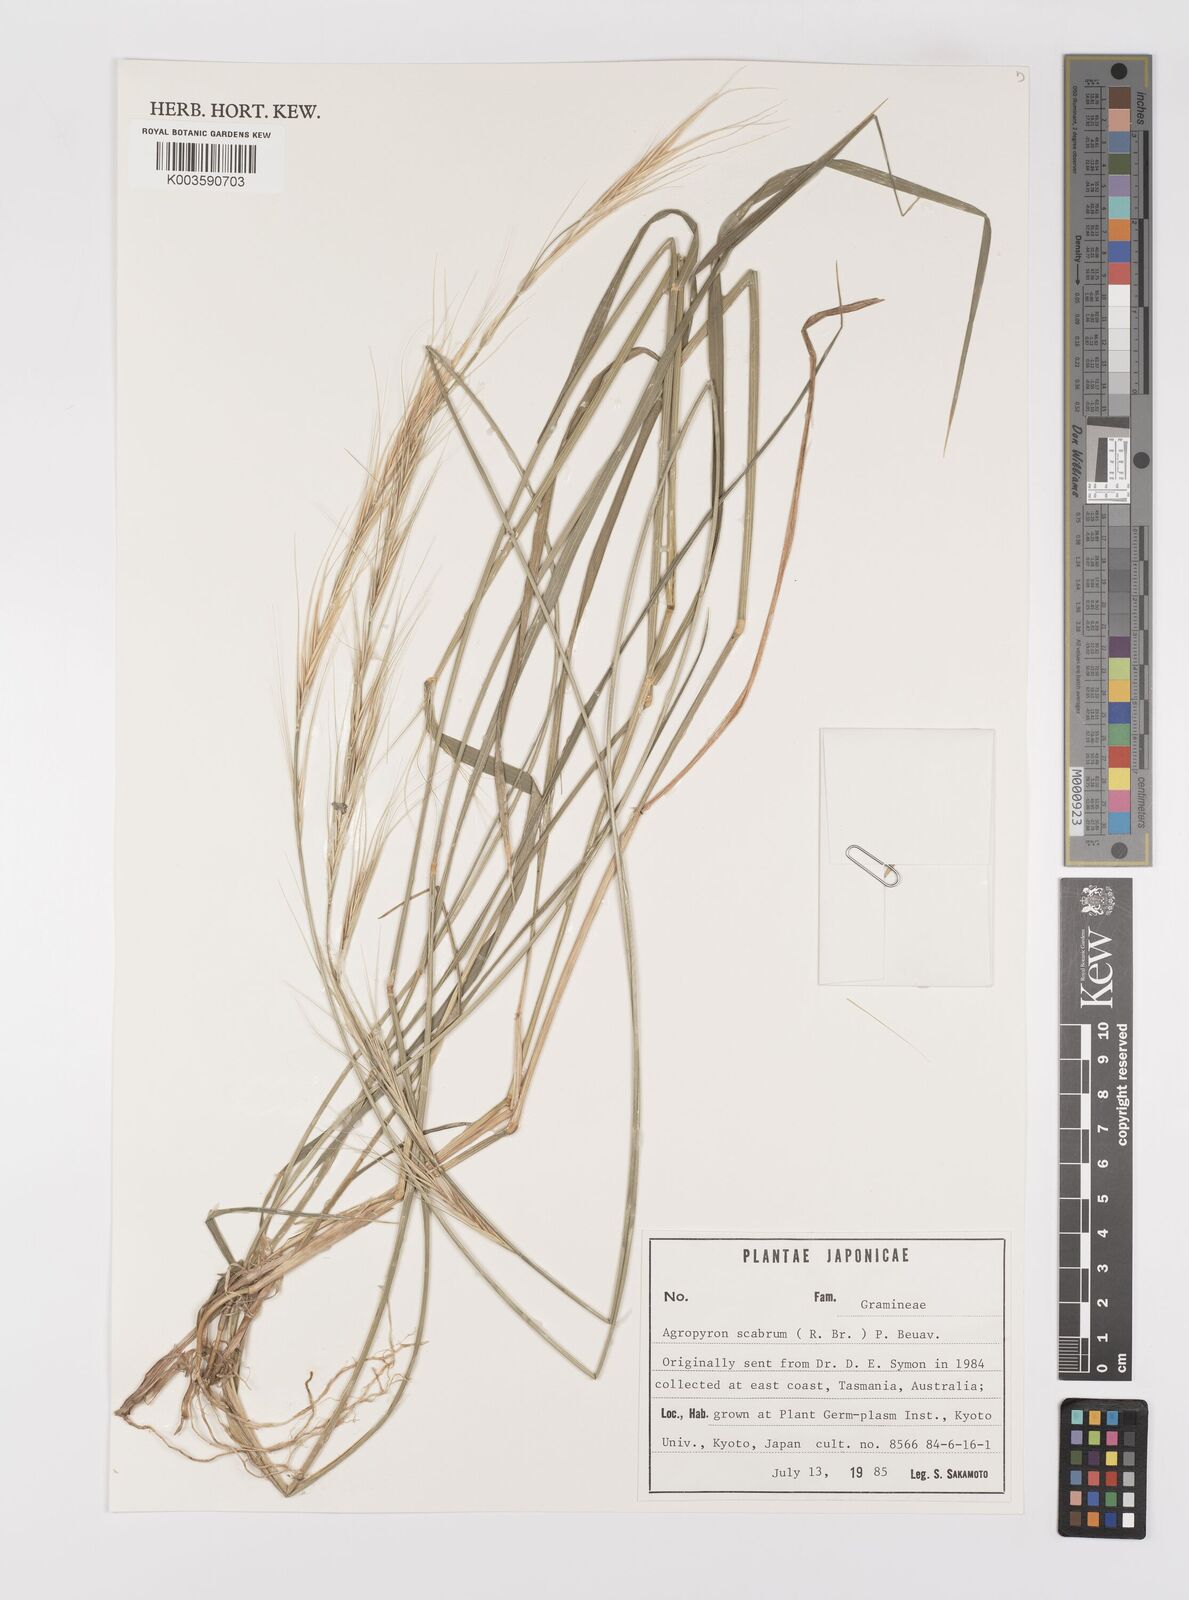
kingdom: Plantae
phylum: Tracheophyta
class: Liliopsida
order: Poales
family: Poaceae
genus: Elymus
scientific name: Elymus
